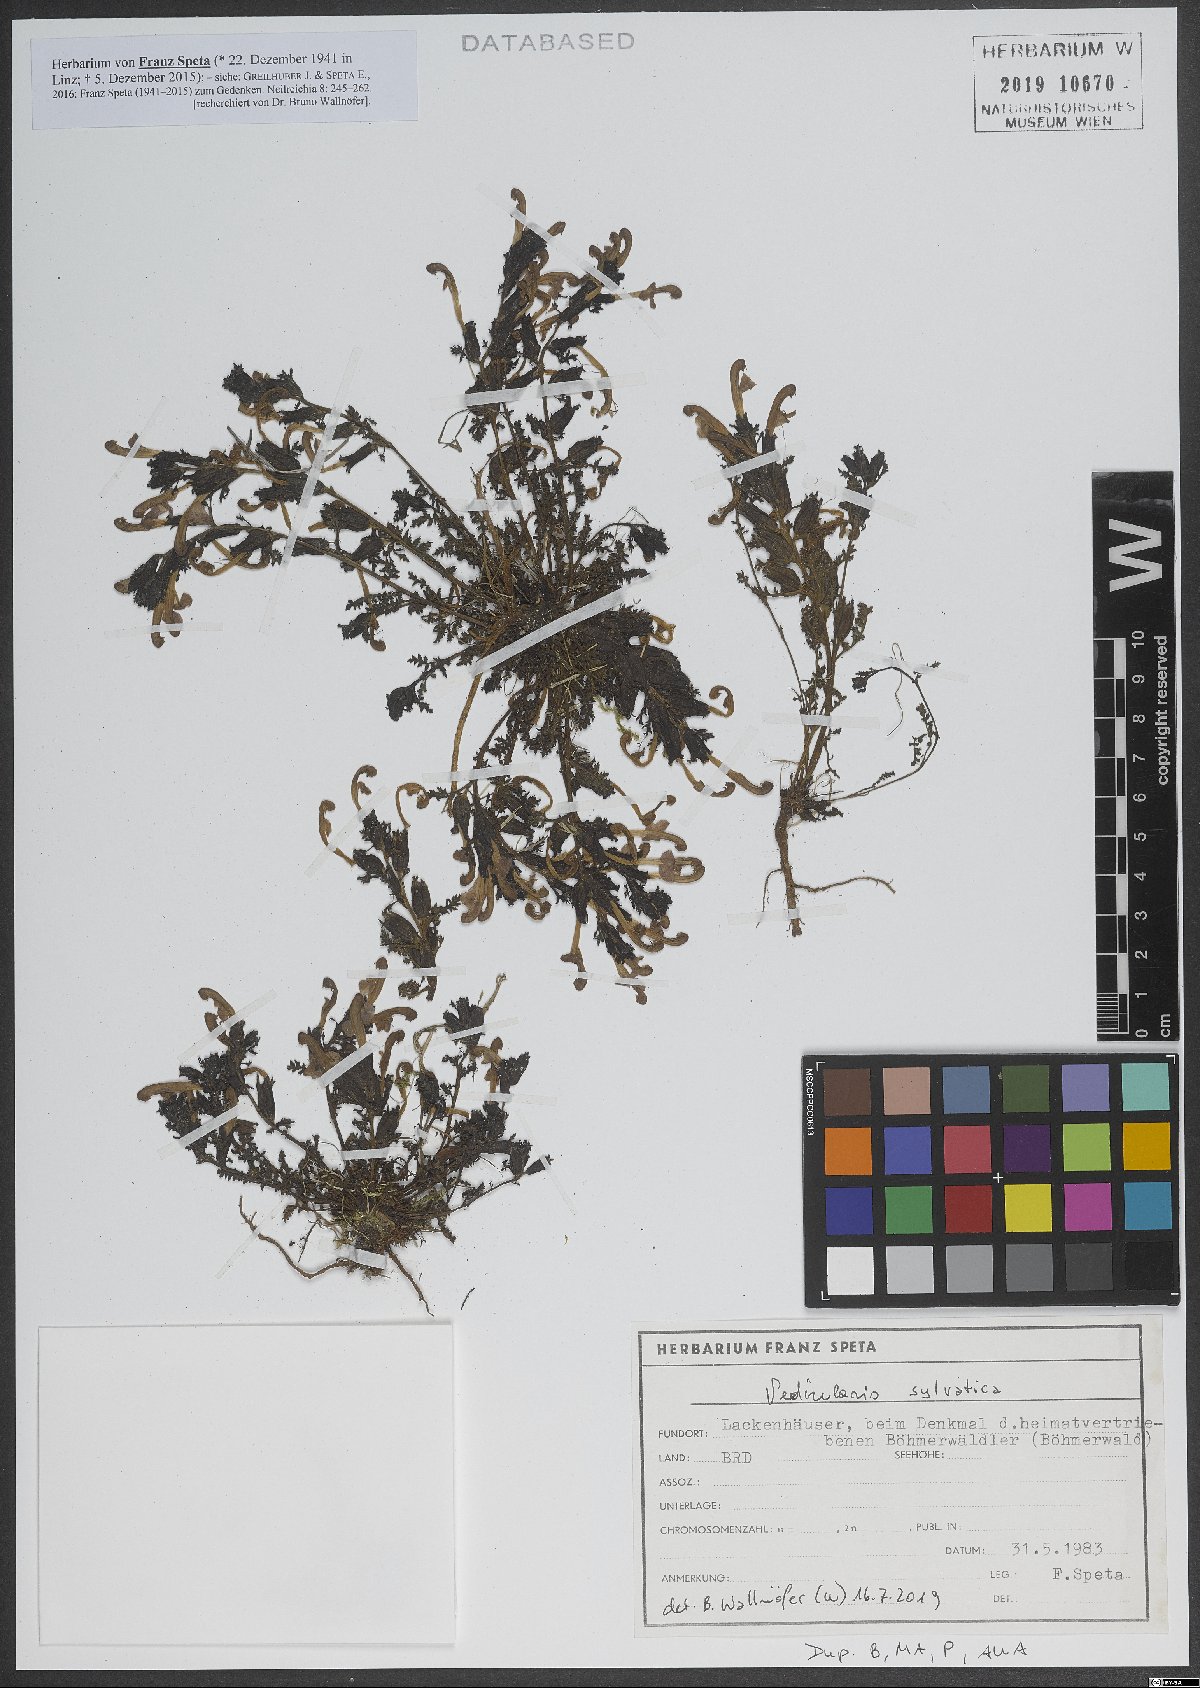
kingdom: Plantae
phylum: Tracheophyta
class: Magnoliopsida
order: Lamiales
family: Orobanchaceae
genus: Pedicularis
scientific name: Pedicularis sylvatica
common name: Lousewort
